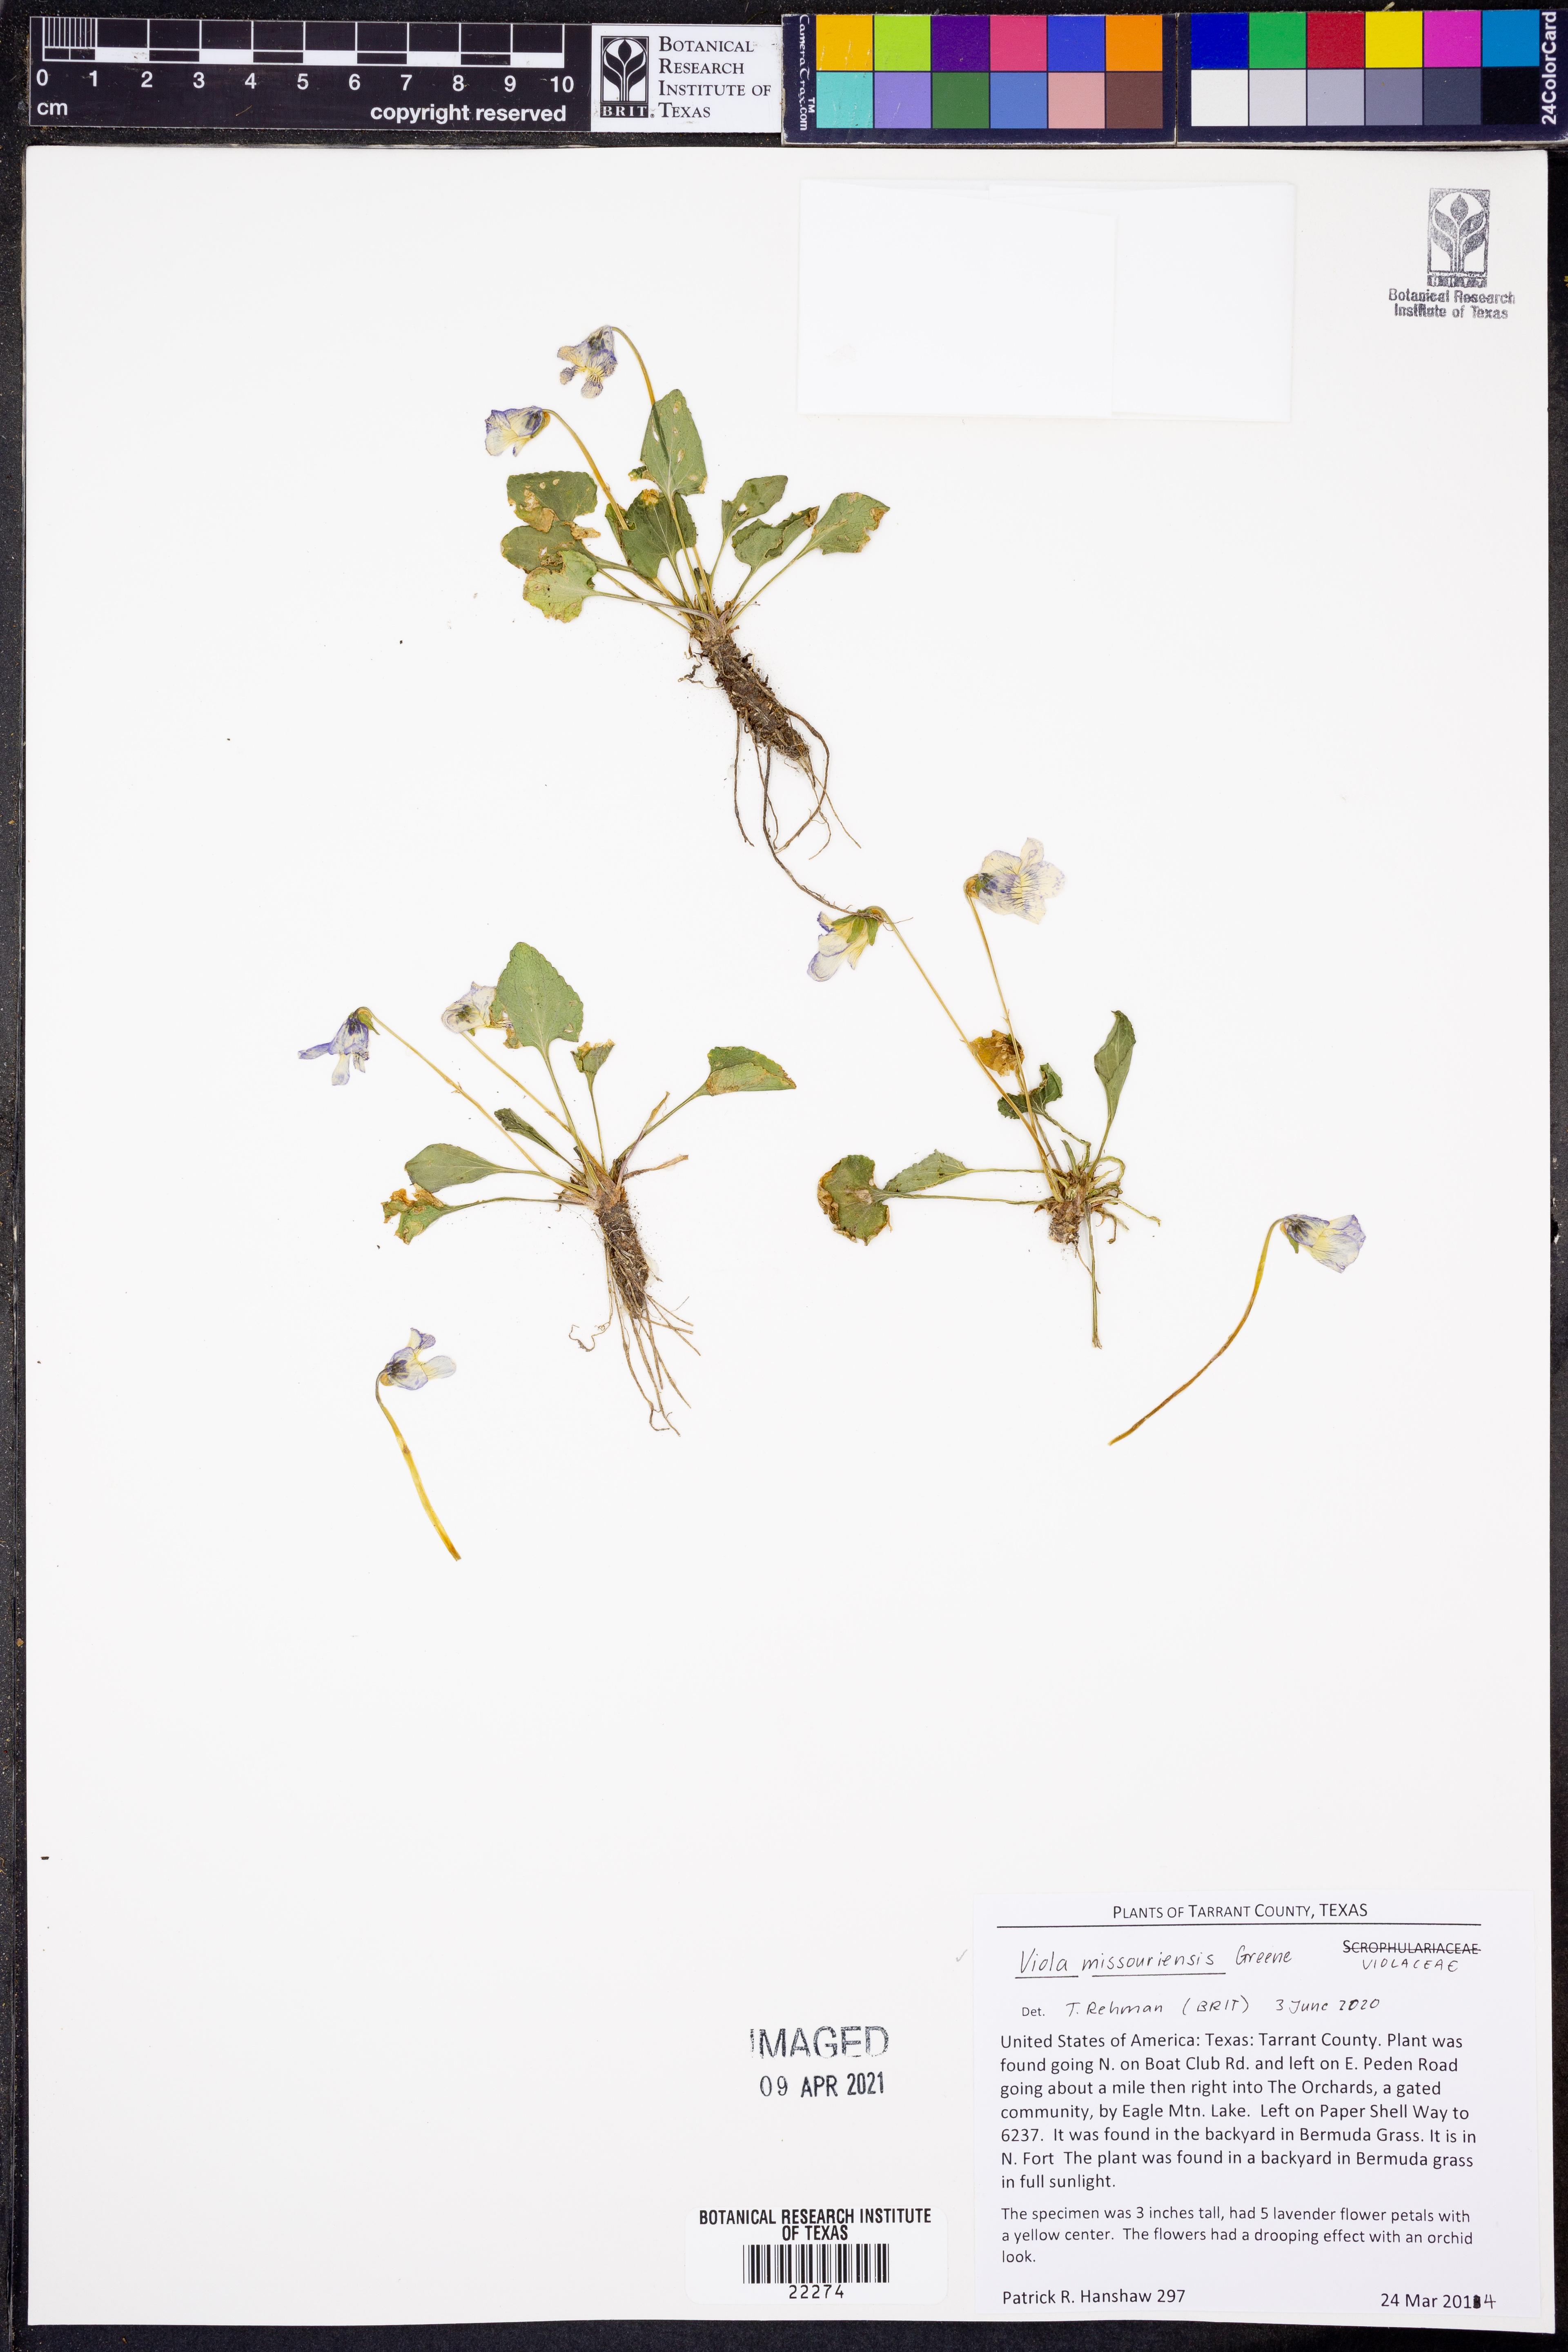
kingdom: Plantae
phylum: Tracheophyta
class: Magnoliopsida
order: Malpighiales
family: Violaceae
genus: Viola
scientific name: Viola missouriensis
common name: Missouri violet
